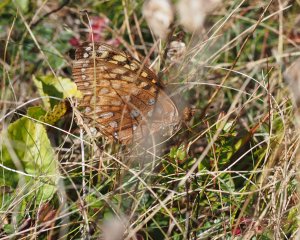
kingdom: Animalia
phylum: Arthropoda
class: Insecta
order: Lepidoptera
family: Nymphalidae
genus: Speyeria
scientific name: Speyeria cybele
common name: Great Spangled Fritillary
